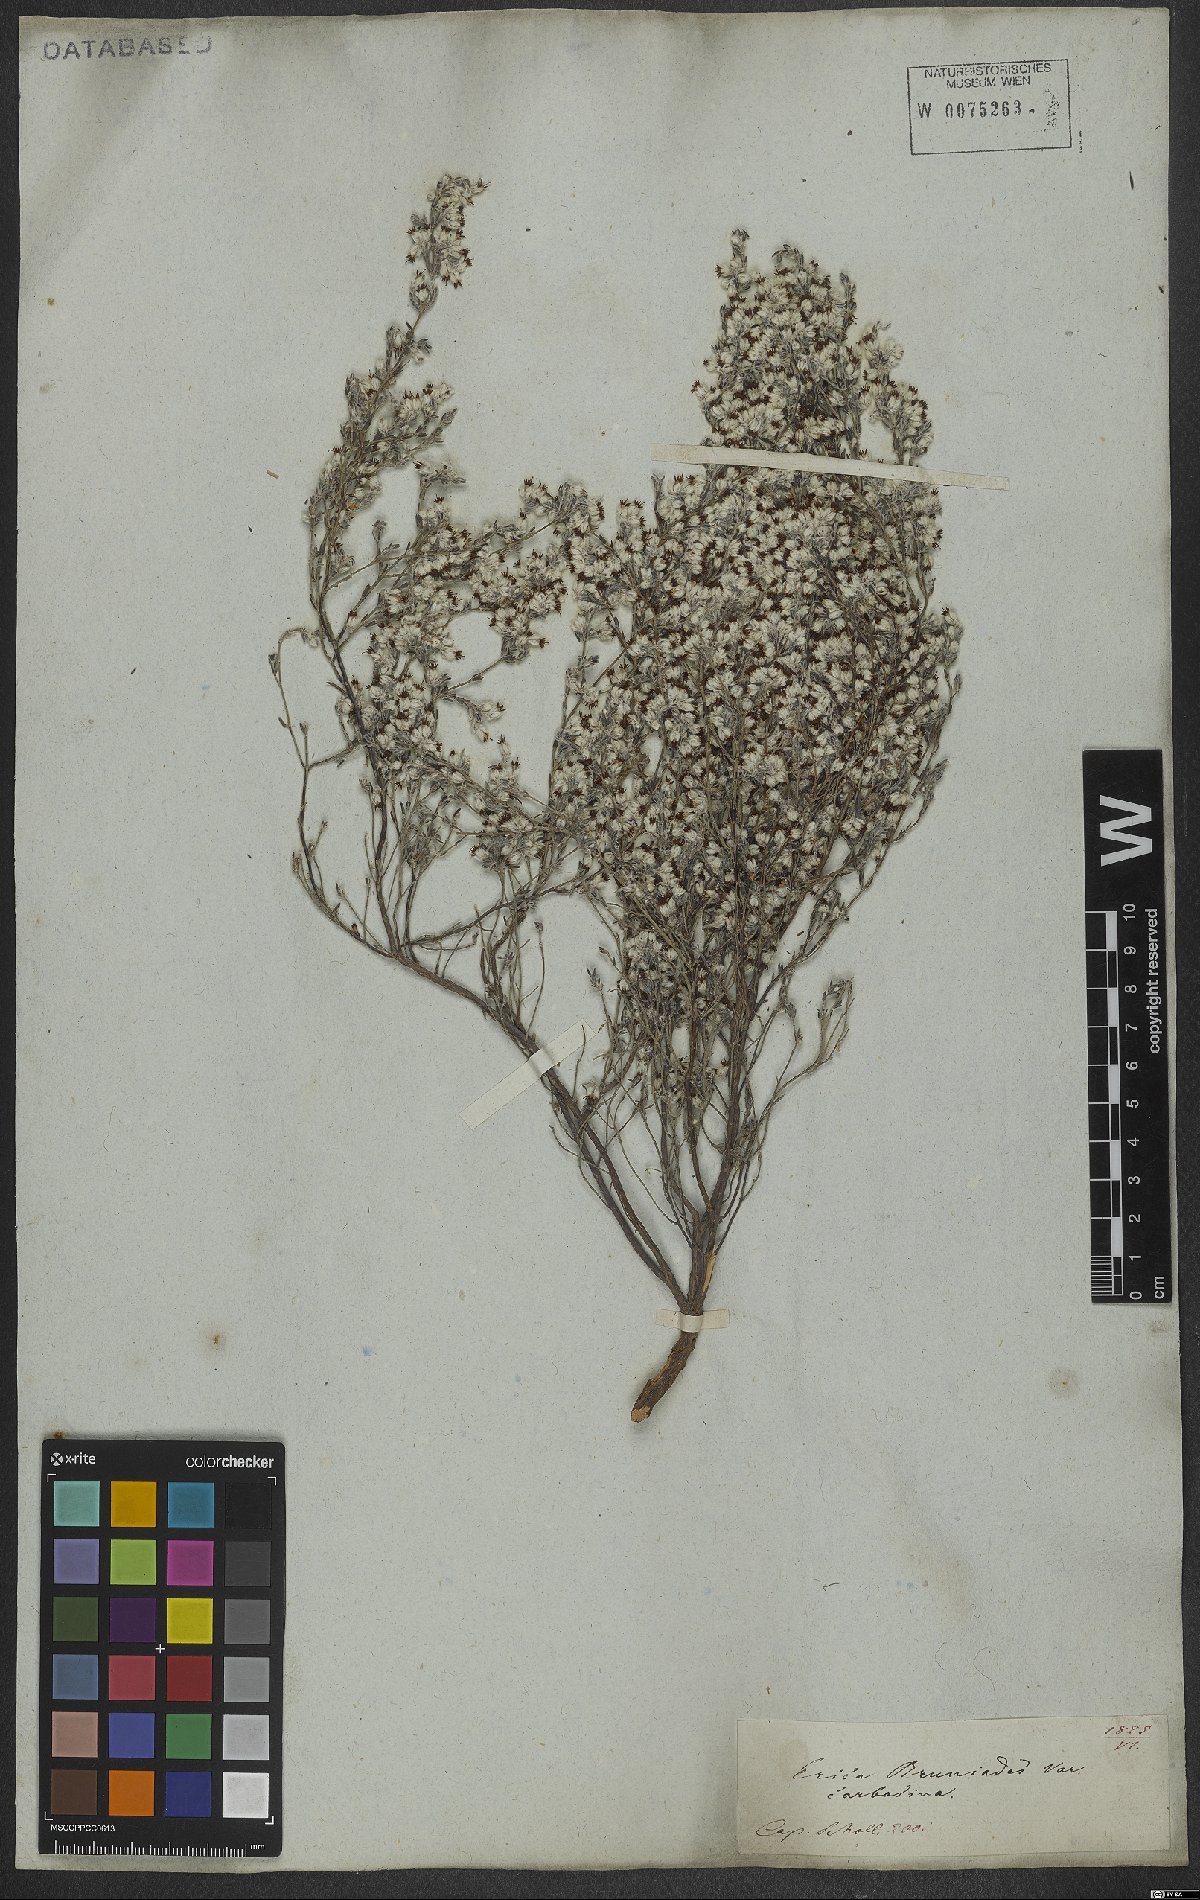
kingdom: Plantae
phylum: Tracheophyta
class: Magnoliopsida
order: Ericales
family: Ericaceae
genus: Erica
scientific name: Erica bruniades
